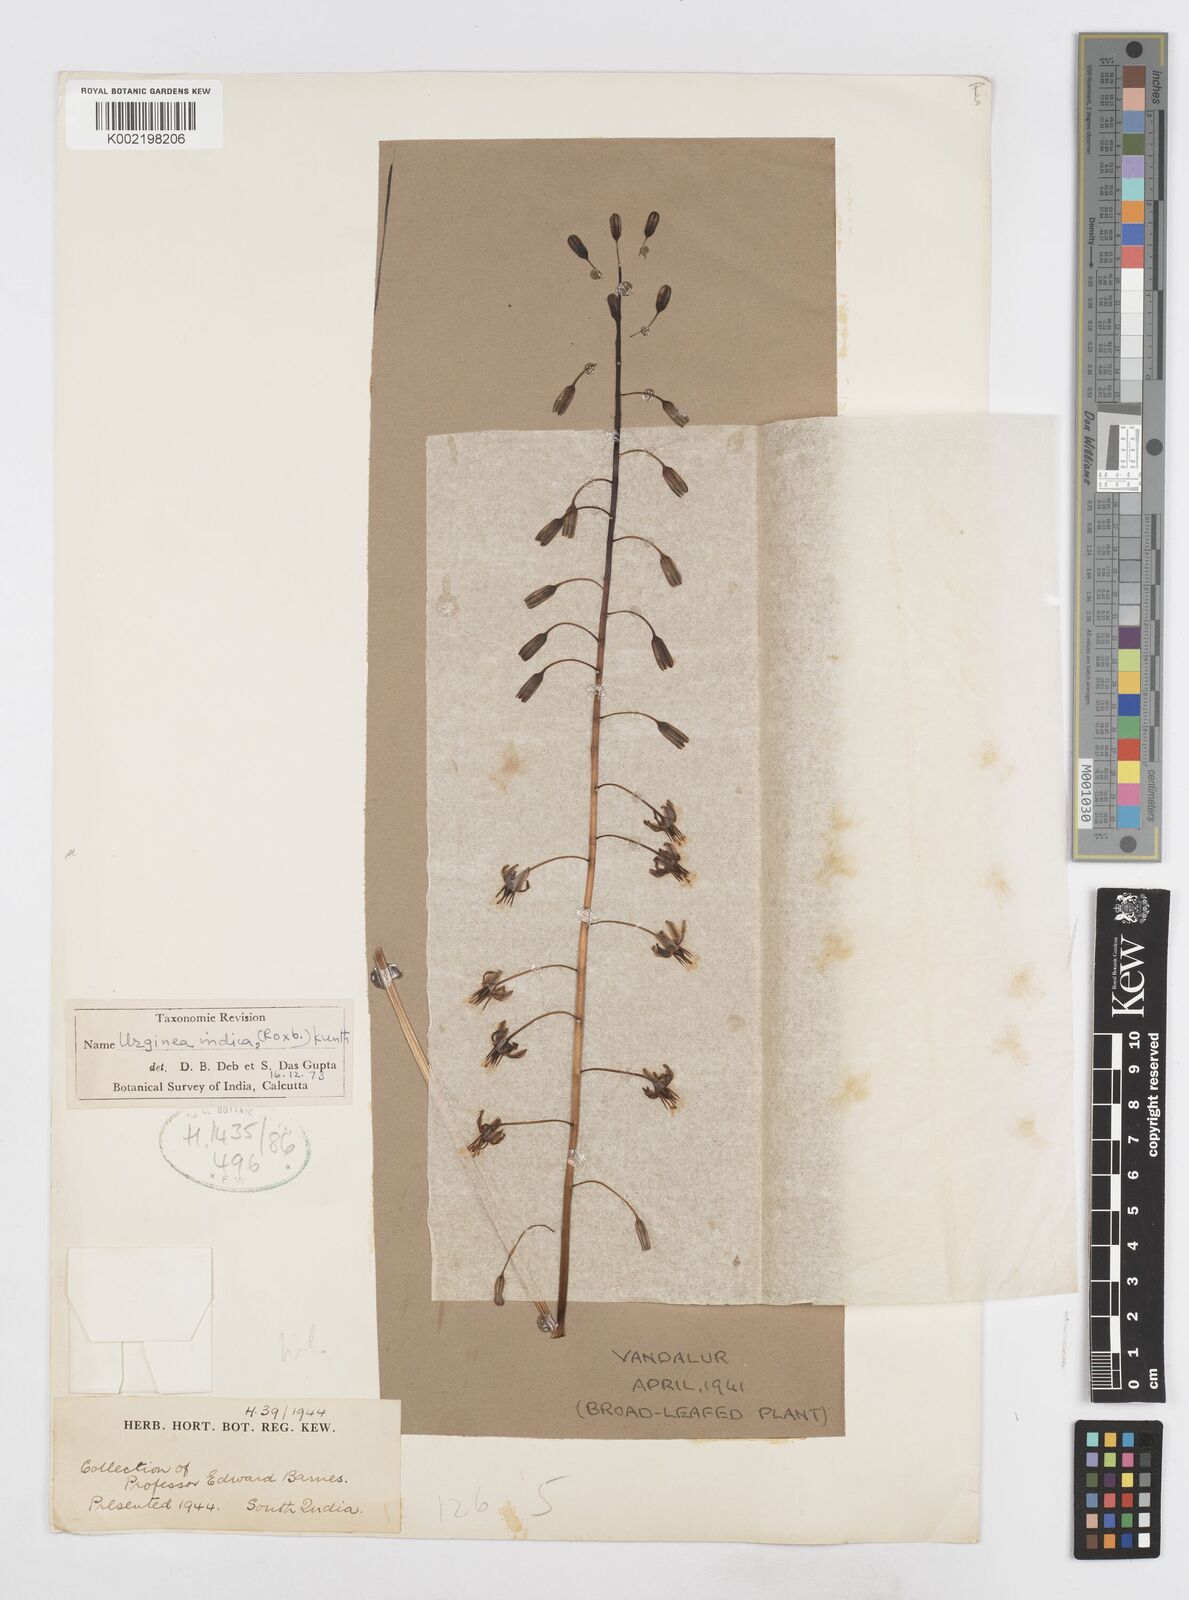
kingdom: Plantae
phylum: Tracheophyta
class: Liliopsida
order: Asparagales
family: Asparagaceae
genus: Drimia
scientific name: Drimia indica
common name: Indian-squill
